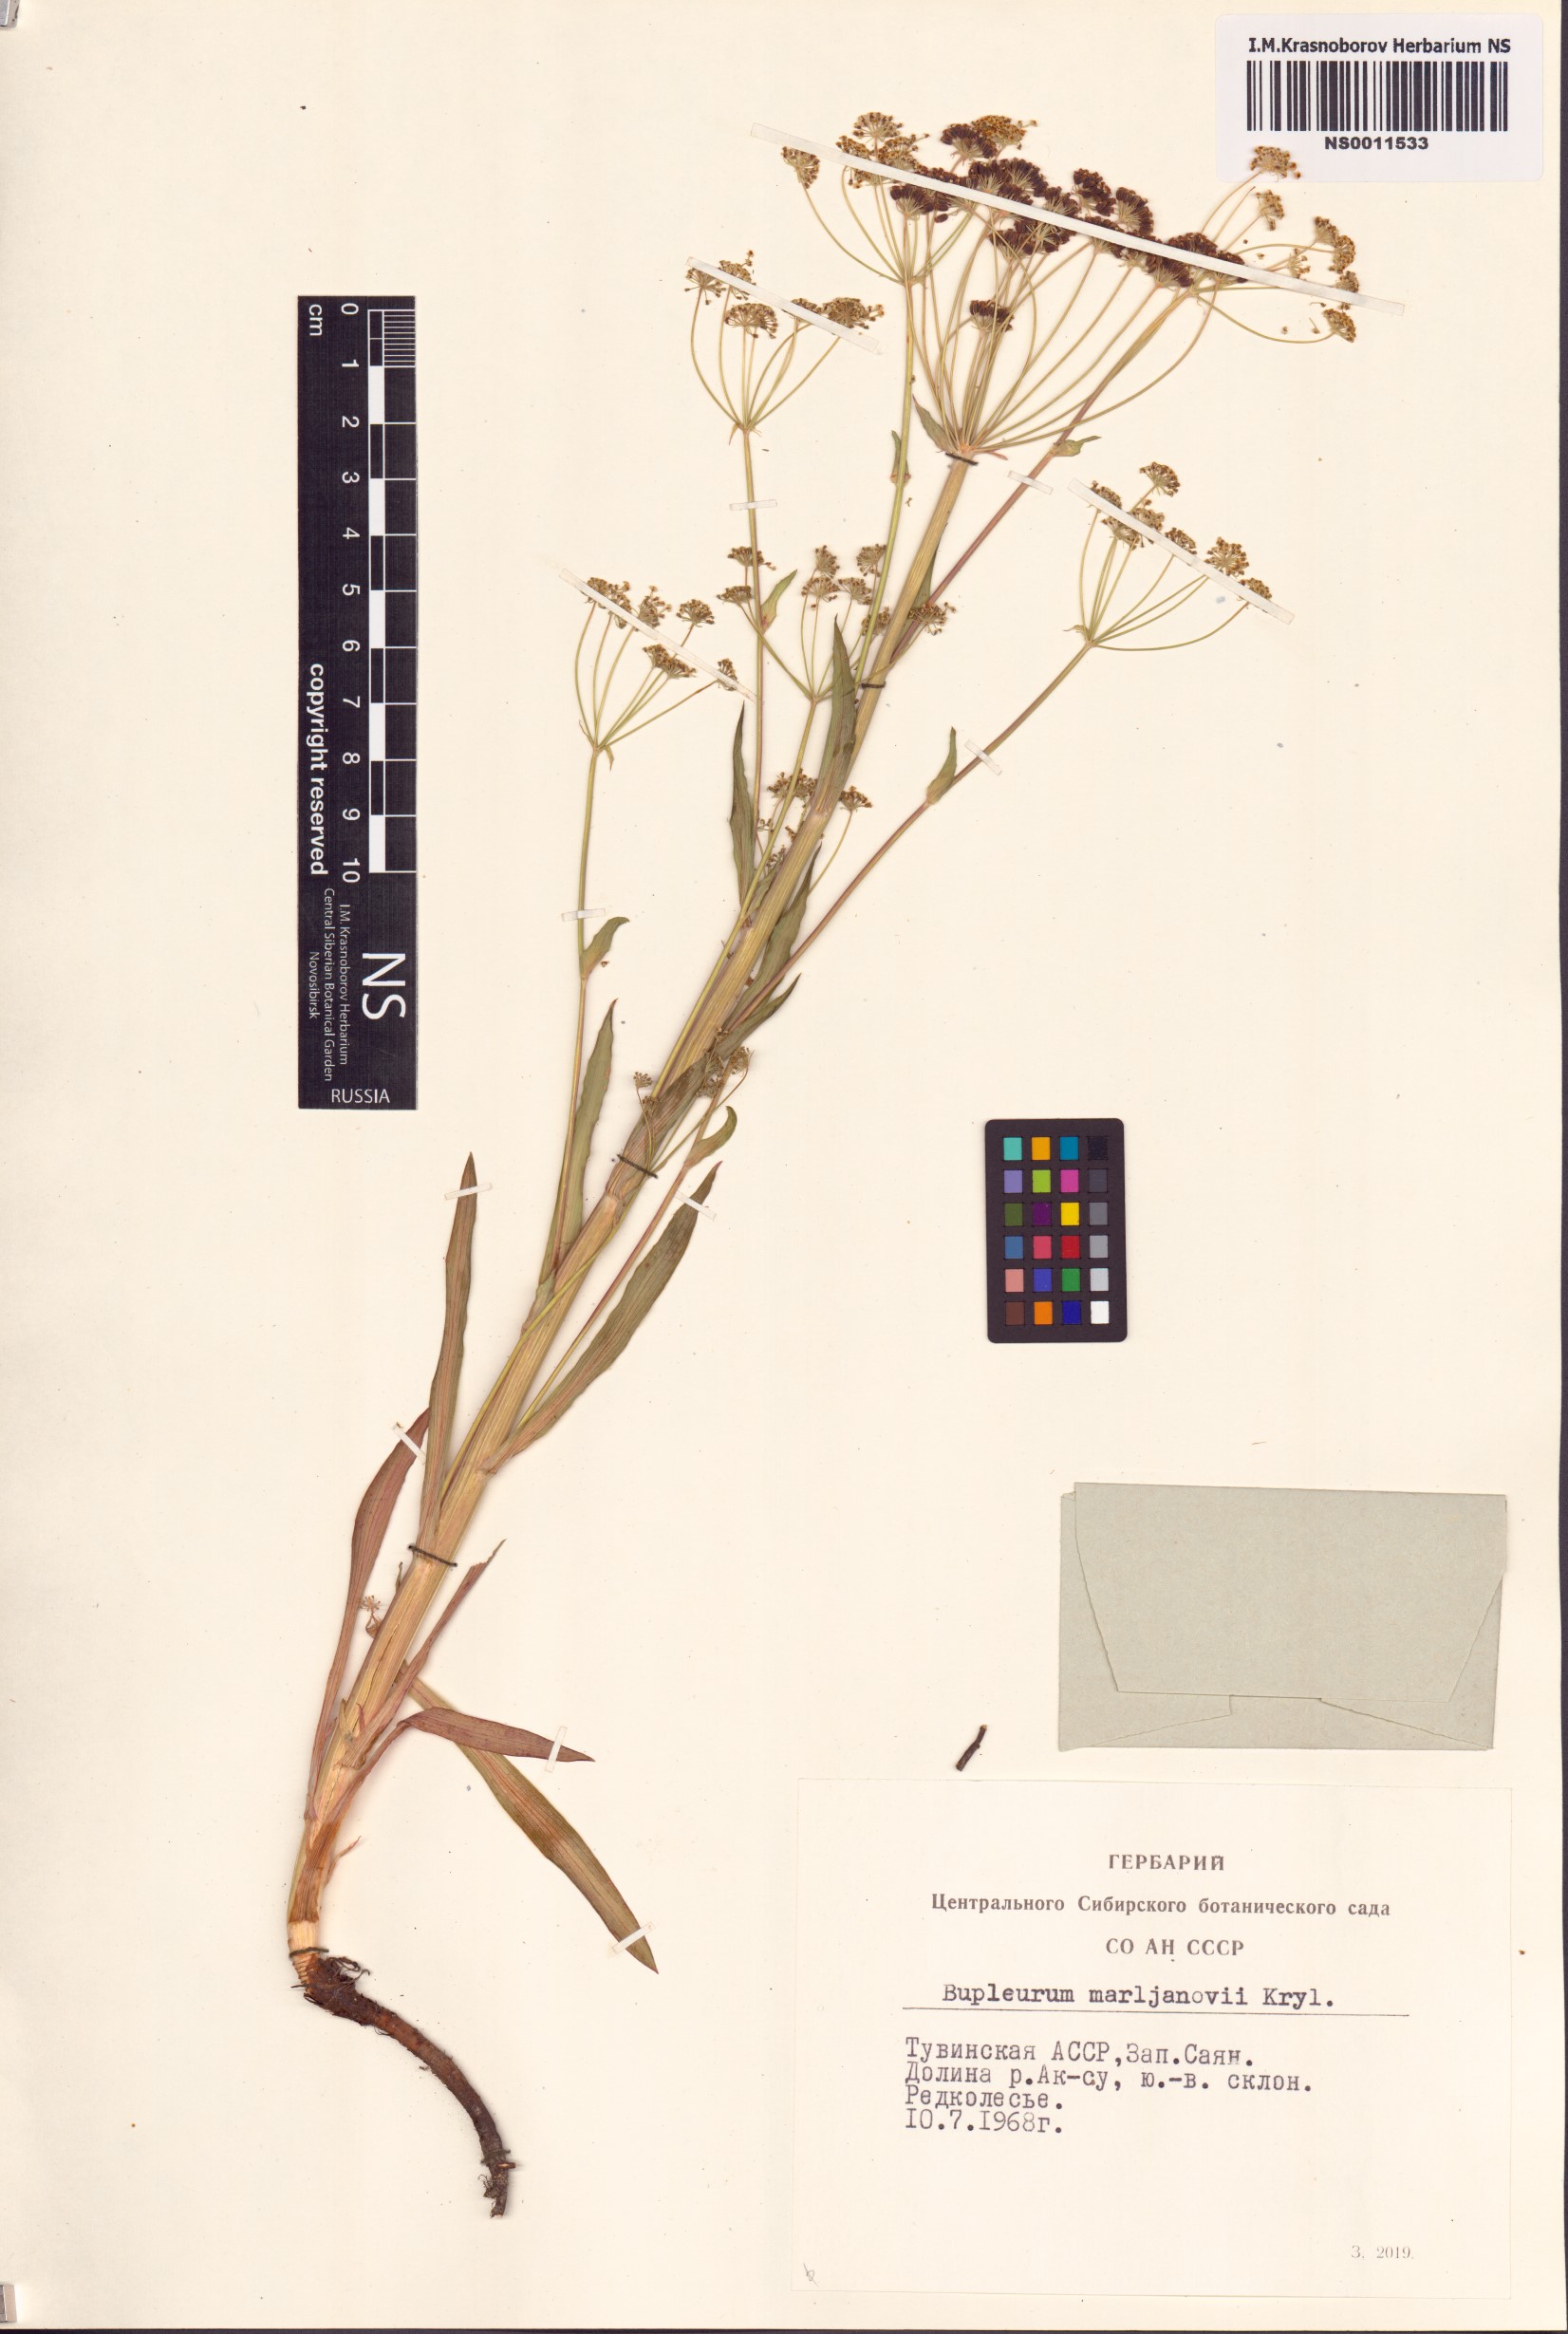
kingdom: Plantae
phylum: Tracheophyta
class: Magnoliopsida
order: Apiales
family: Apiaceae
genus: Bupleurum
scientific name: Bupleurum martjanovii
